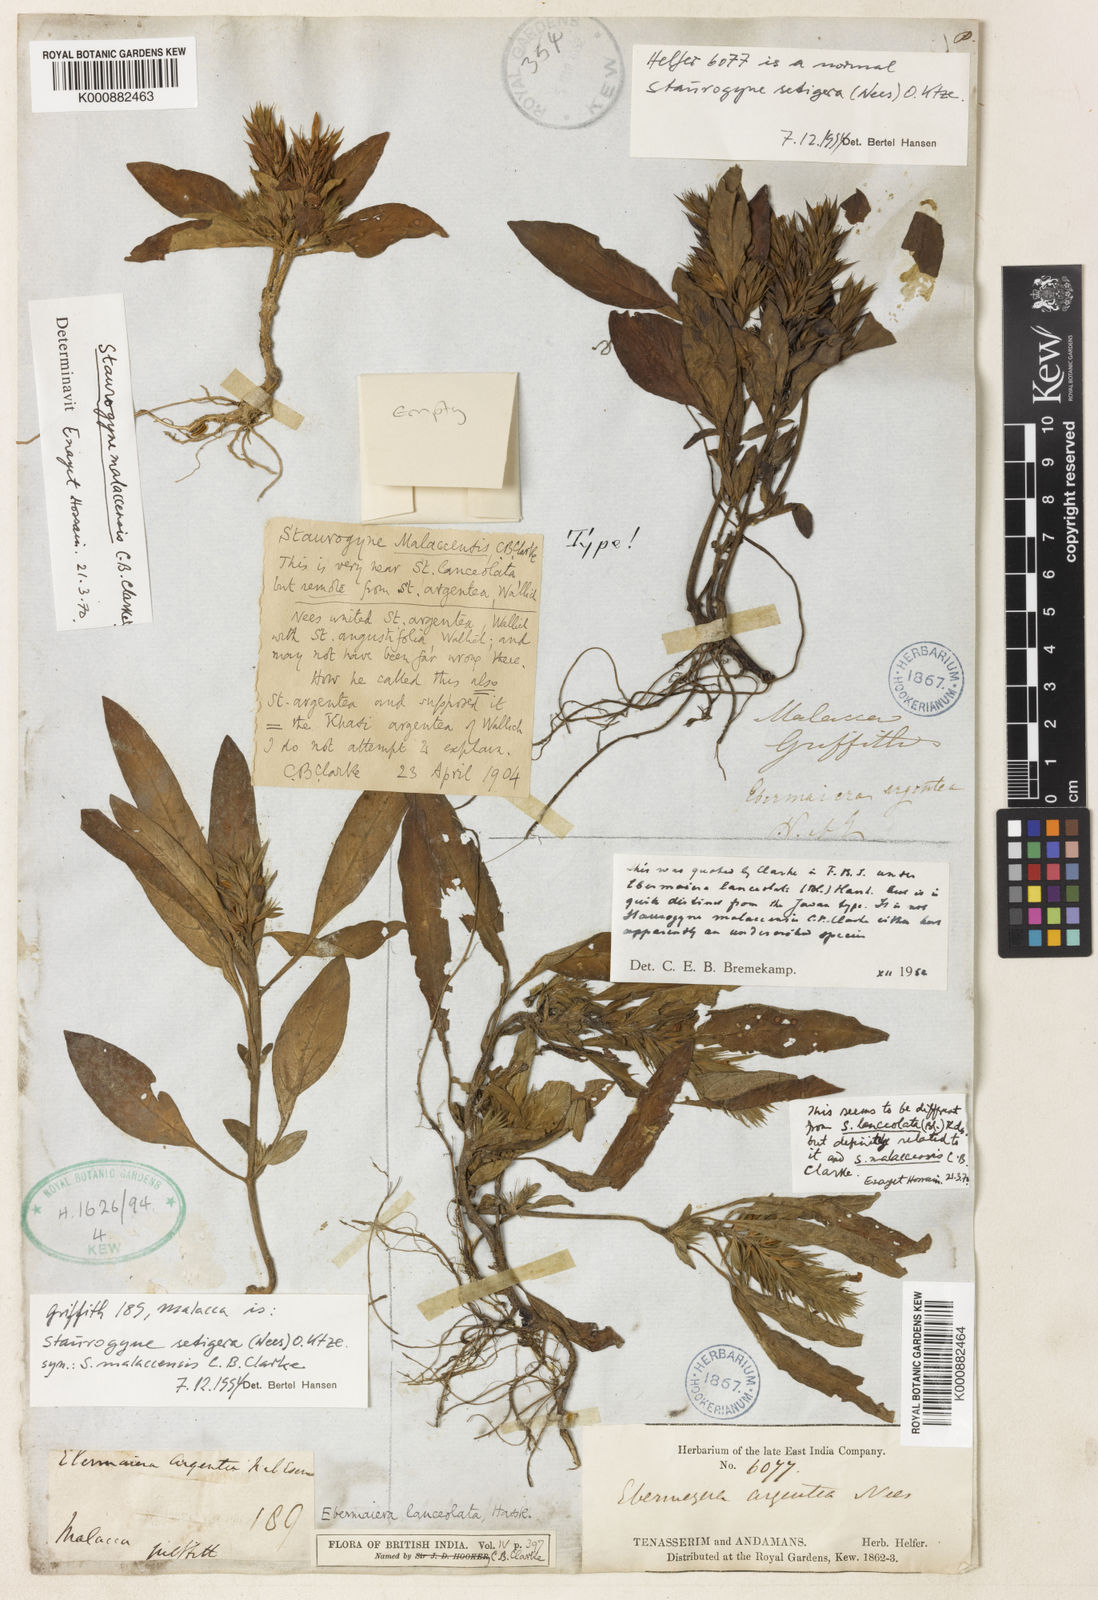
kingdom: Plantae
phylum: Tracheophyta
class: Magnoliopsida
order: Lamiales
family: Acanthaceae
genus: Staurogyne
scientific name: Staurogyne setigera
